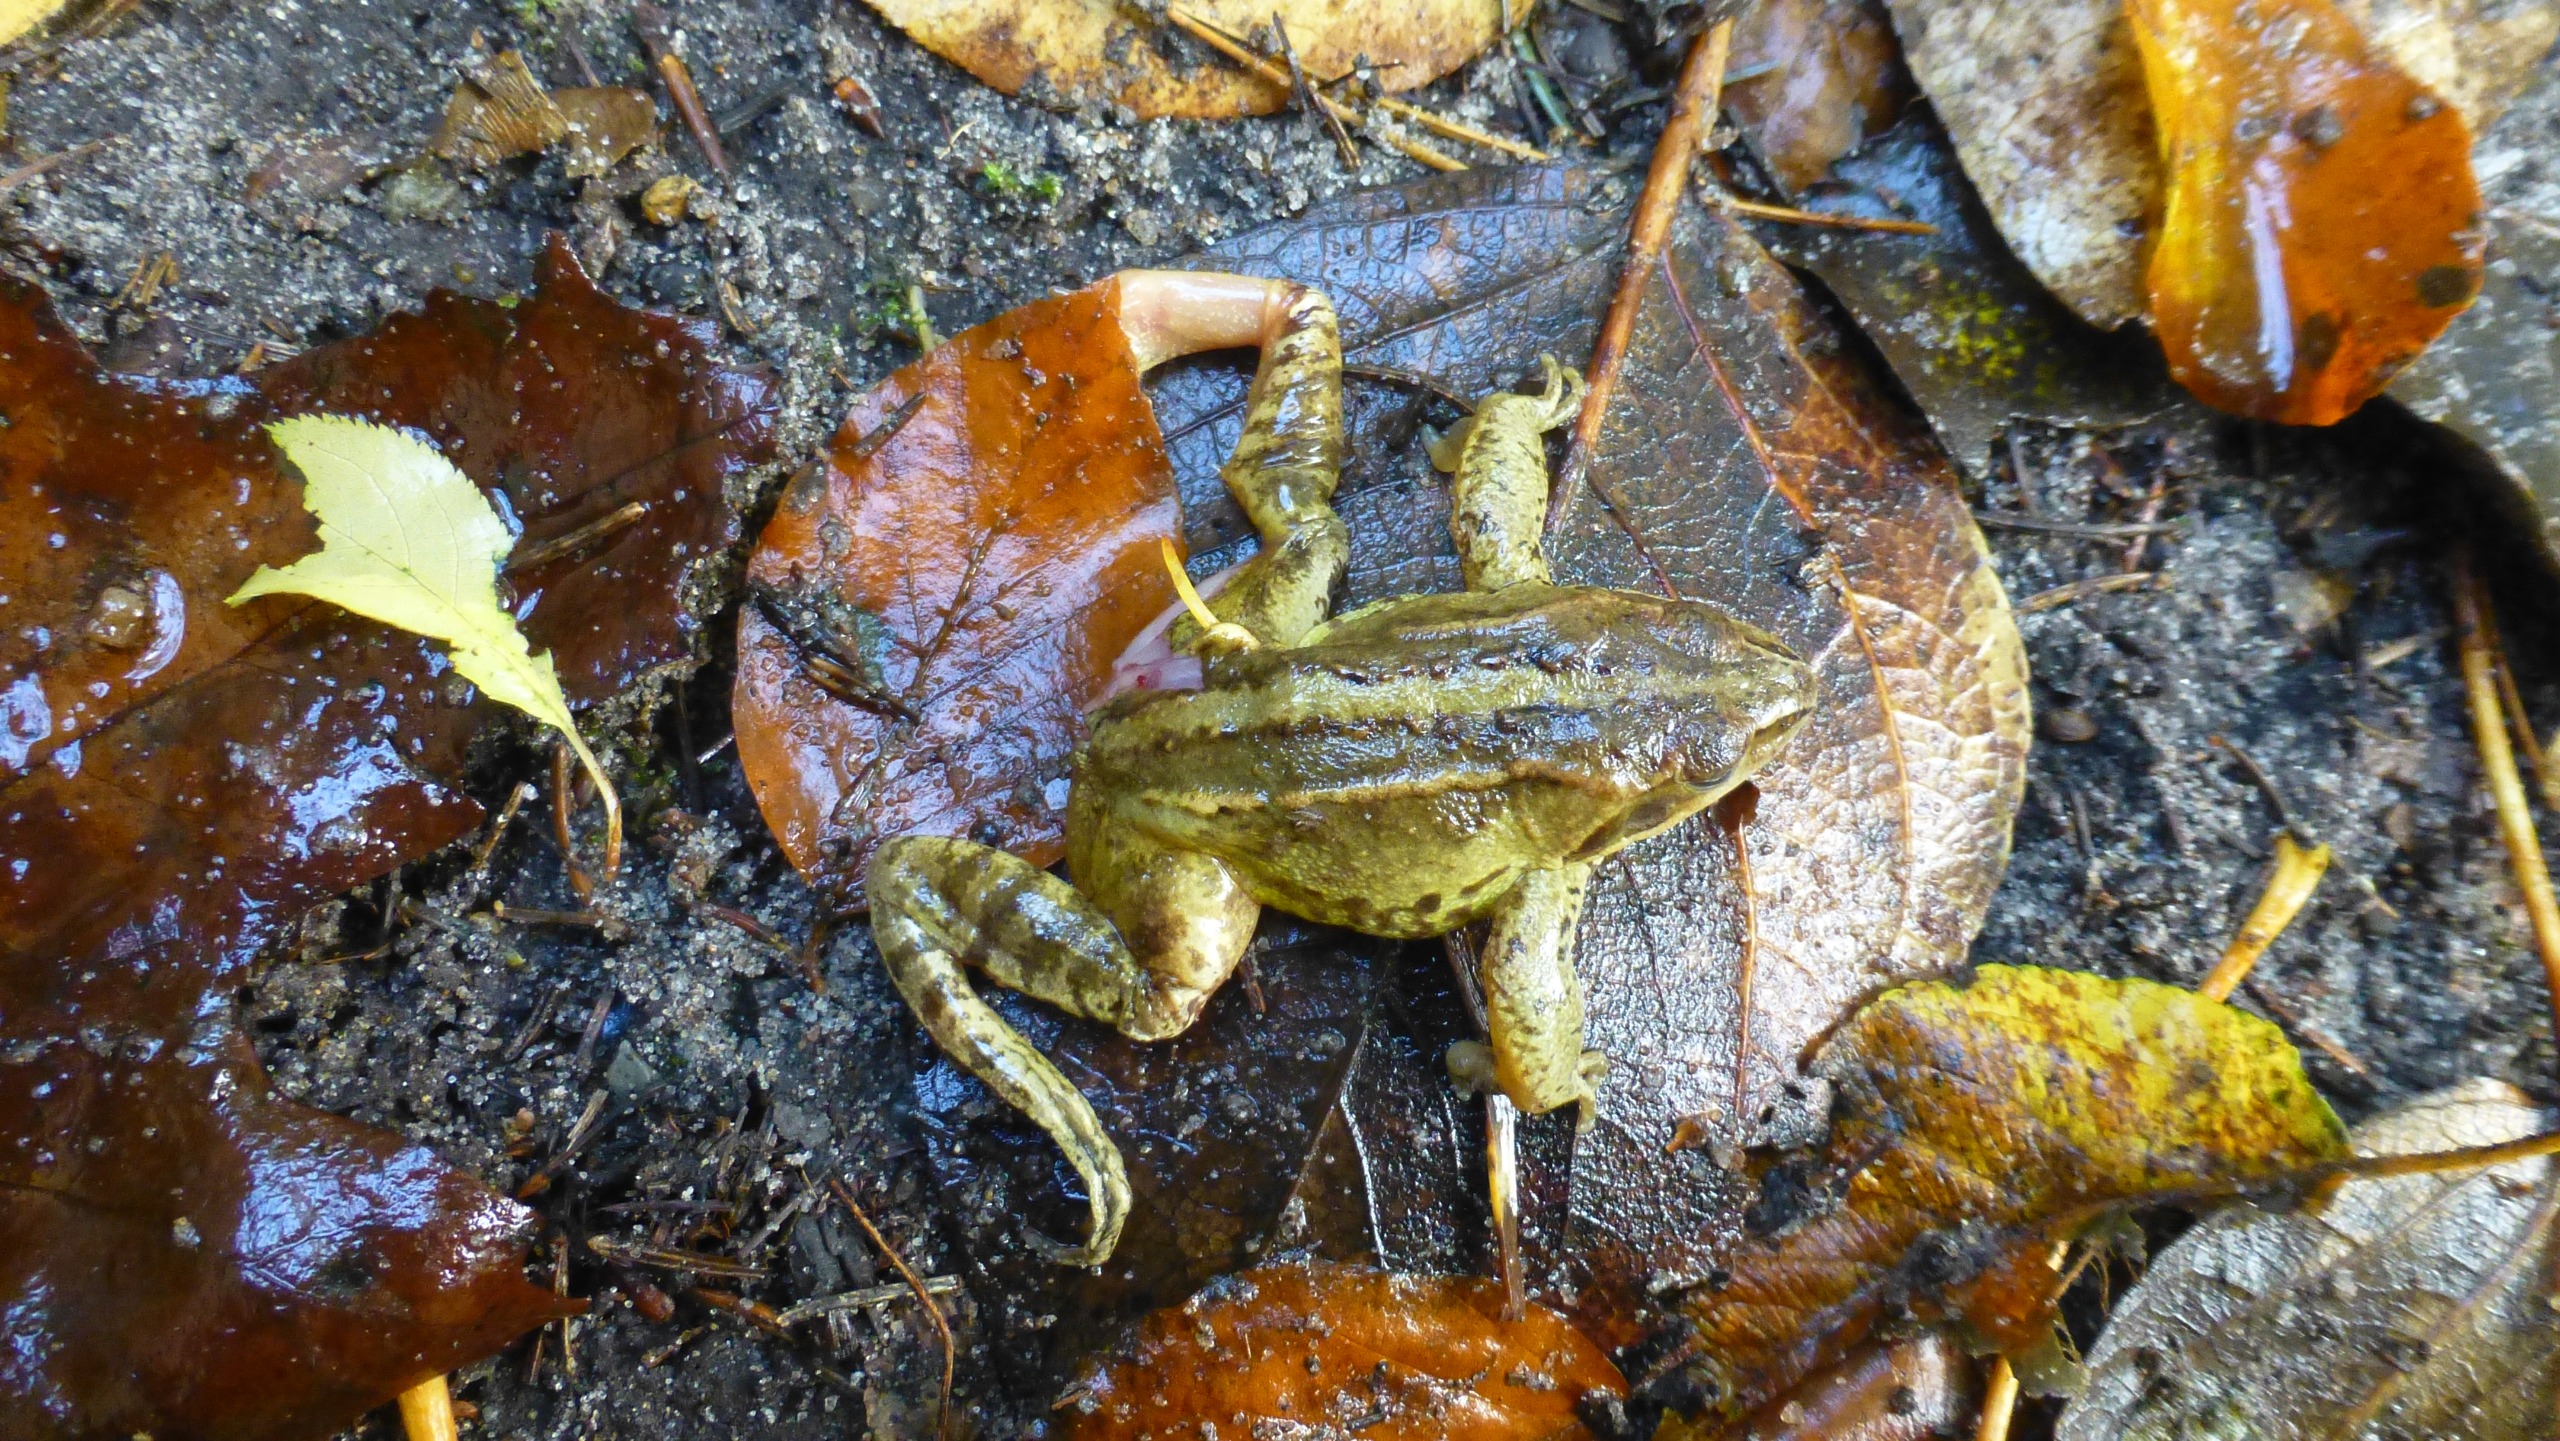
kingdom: Animalia
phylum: Chordata
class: Amphibia
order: Anura
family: Ranidae
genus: Rana
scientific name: Rana arvalis
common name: Spidssnudet frø
